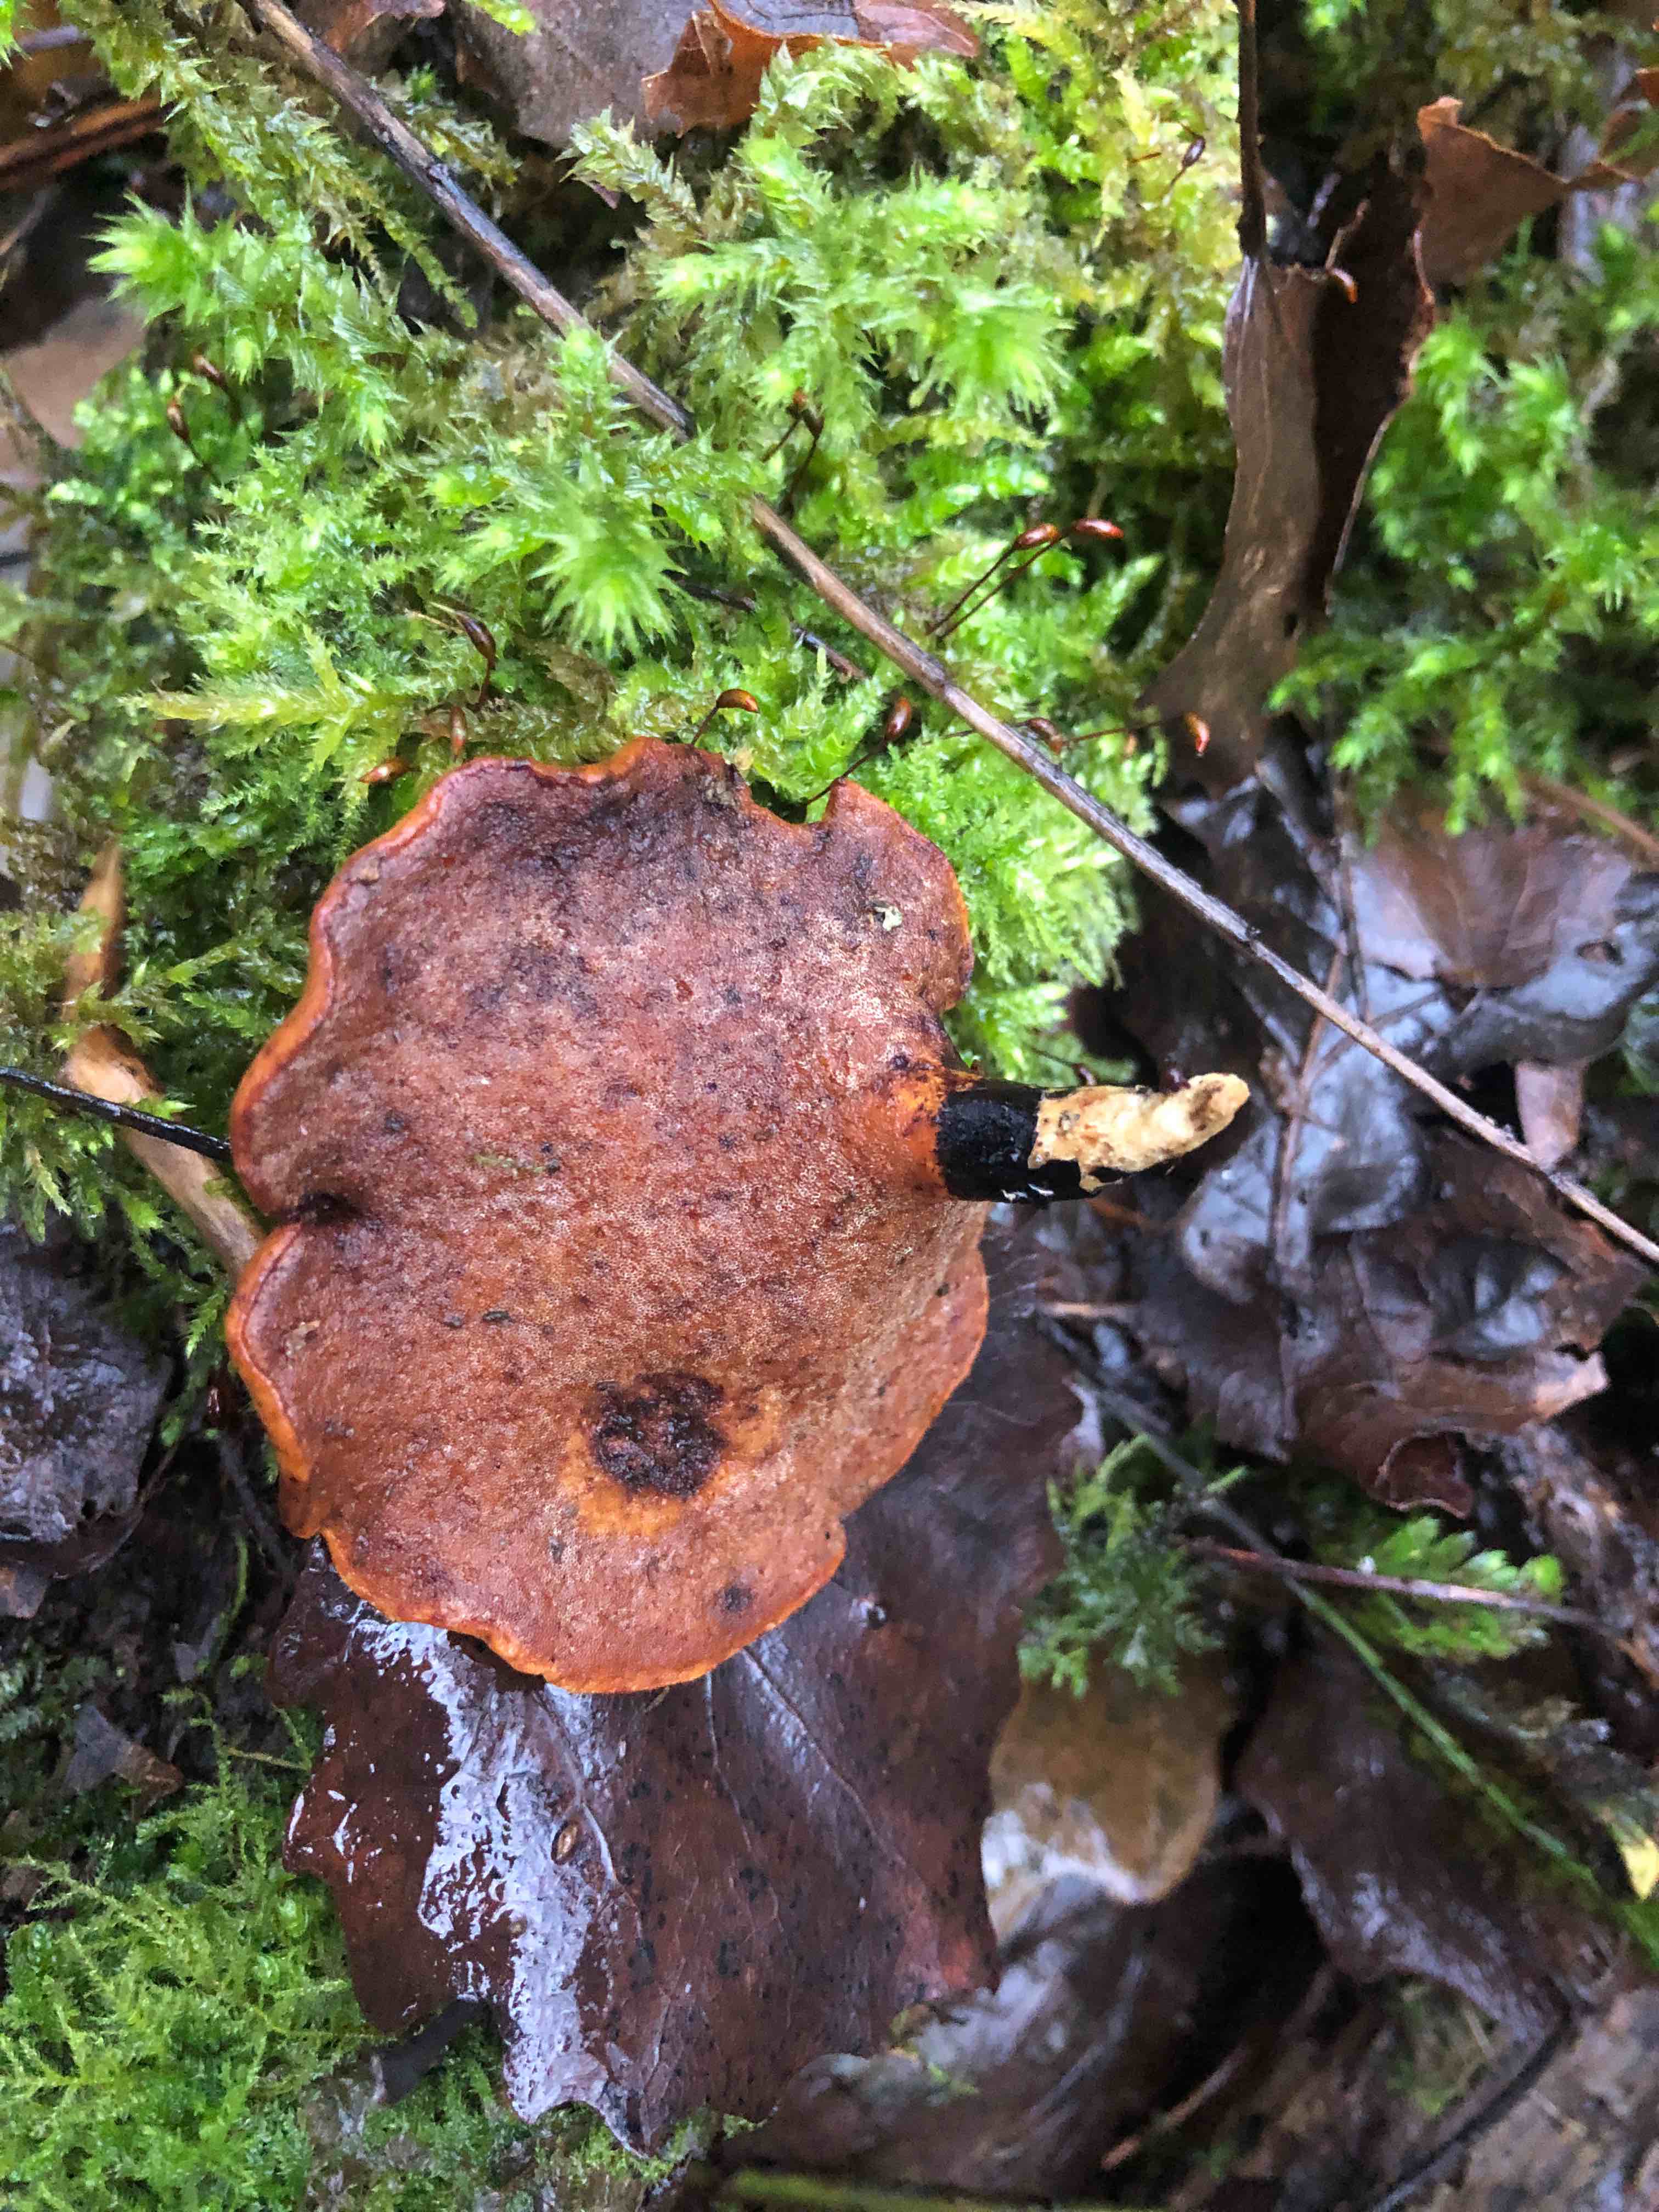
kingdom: Fungi
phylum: Basidiomycota
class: Agaricomycetes
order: Polyporales
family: Polyporaceae
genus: Cerioporus
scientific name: Cerioporus varius
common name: foranderlig stilkporesvamp
